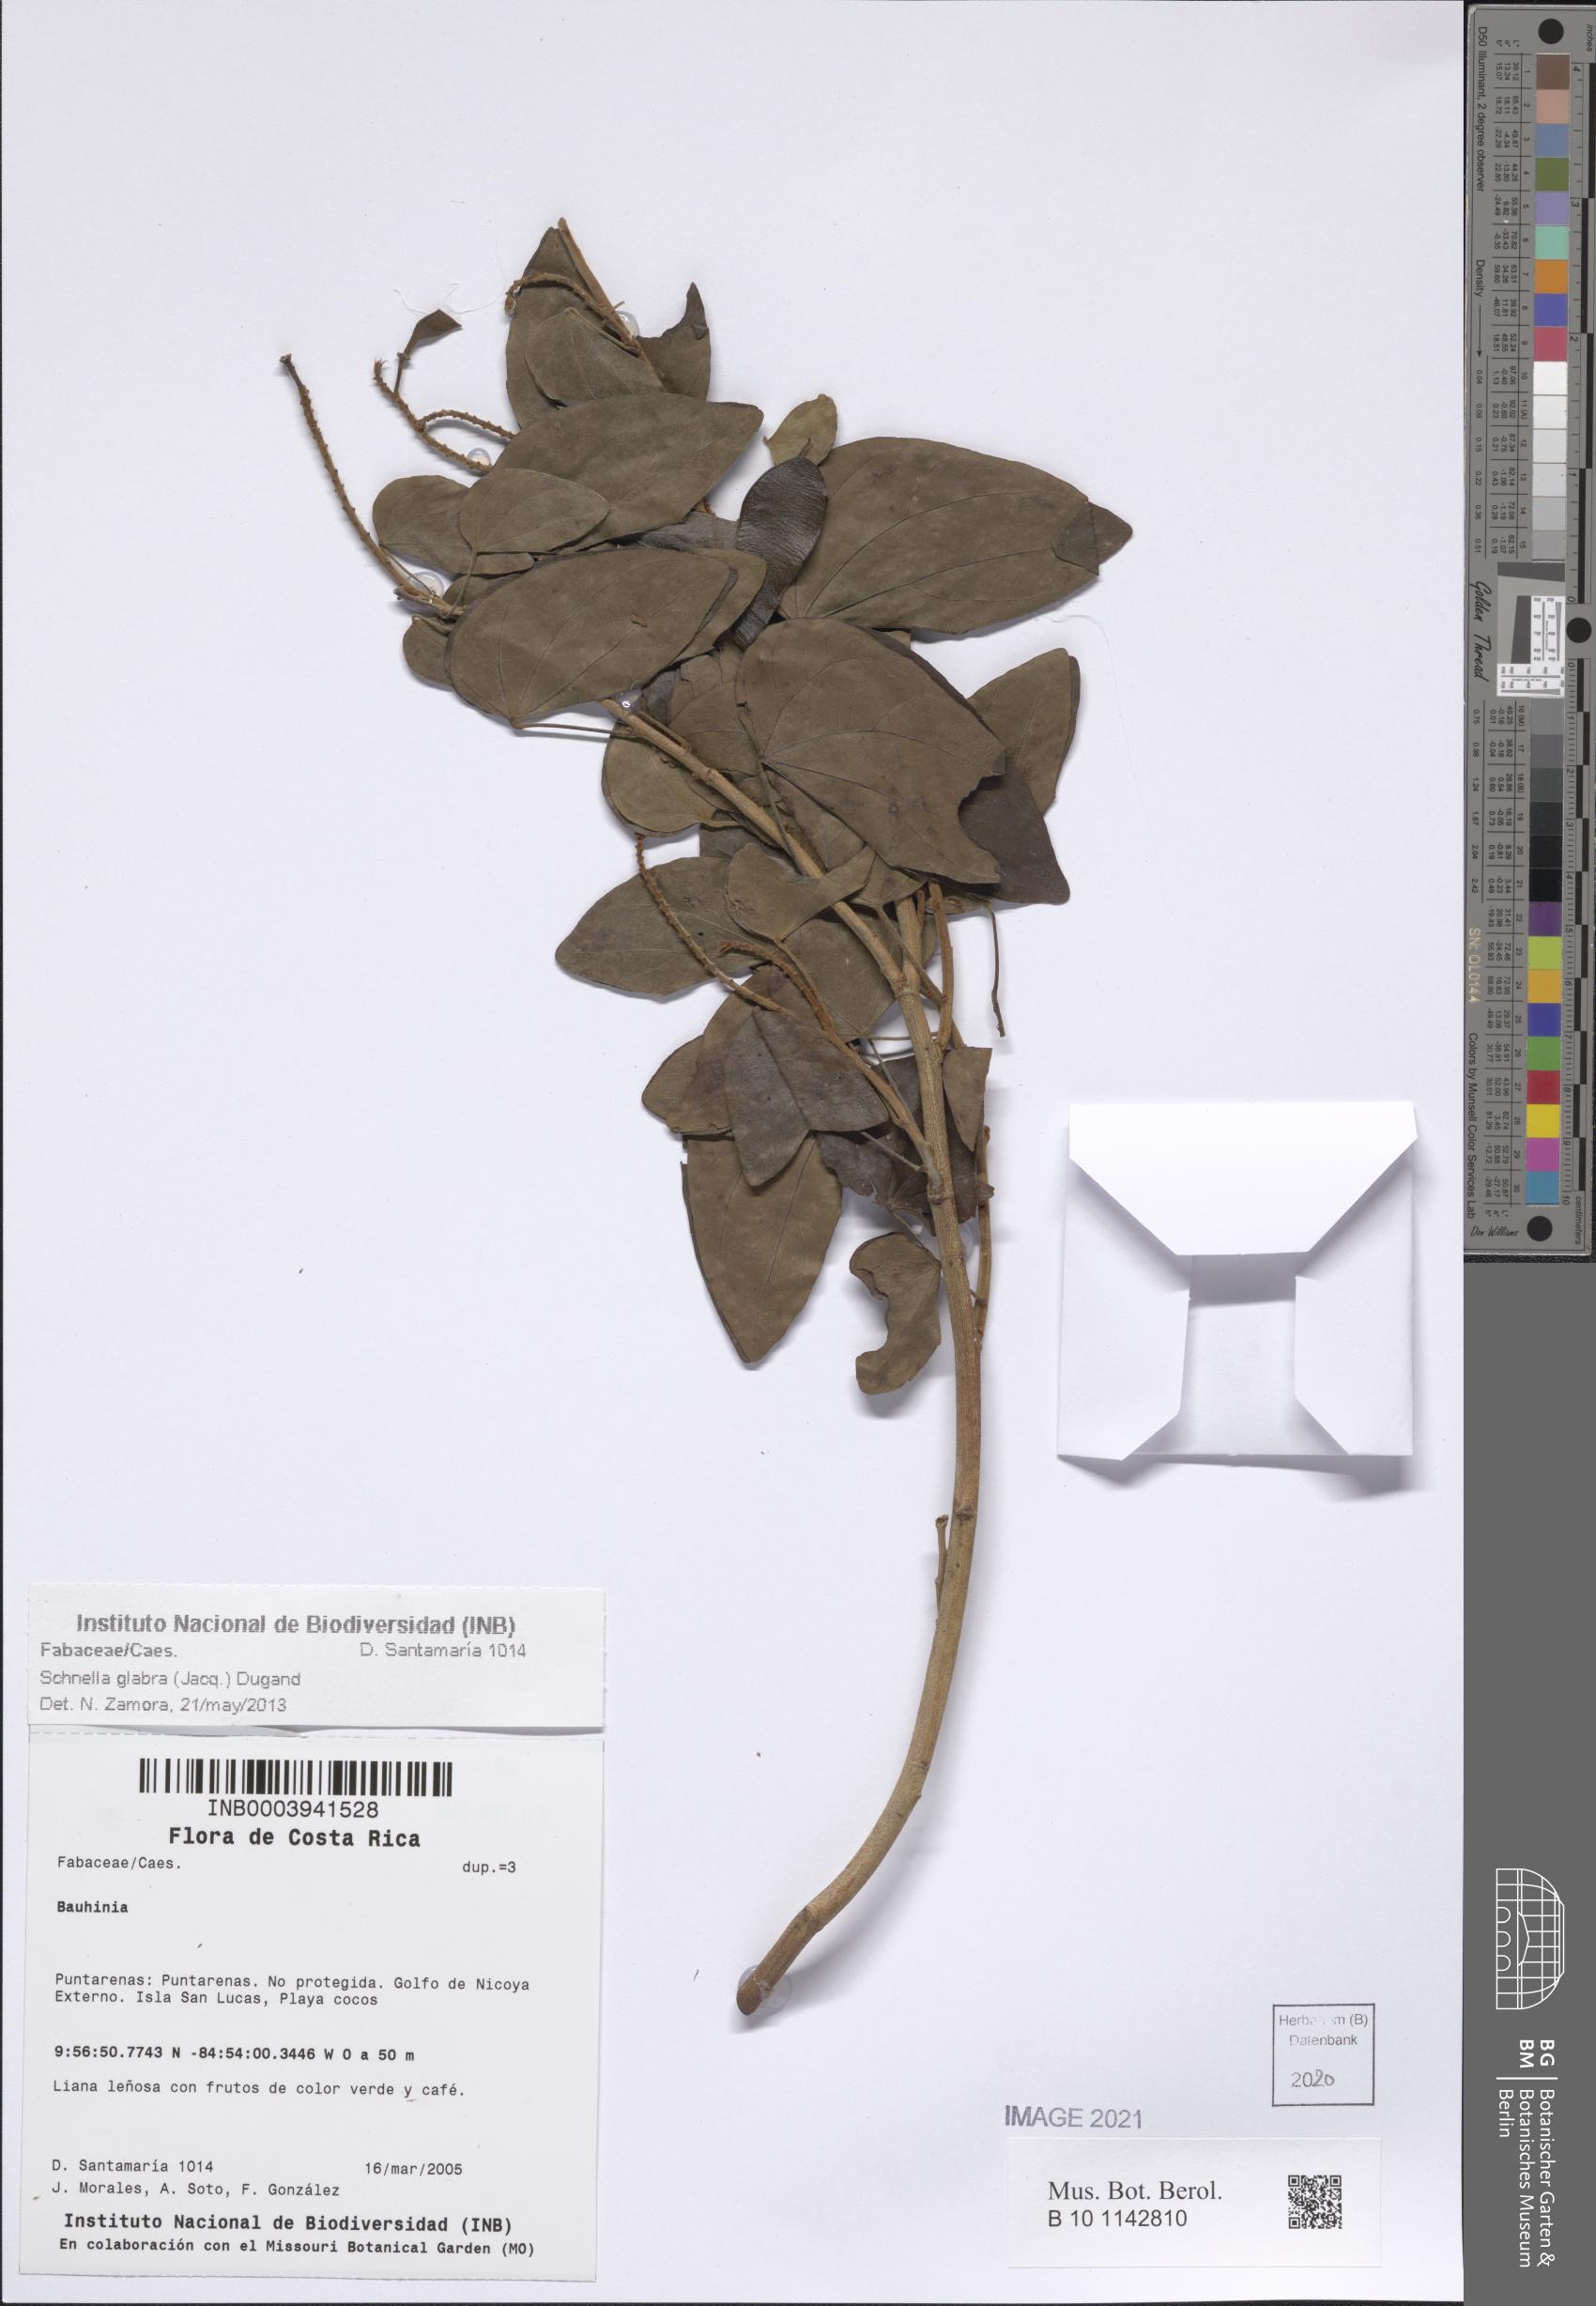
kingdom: Plantae
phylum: Tracheophyta
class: Magnoliopsida
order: Fabales
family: Fabaceae
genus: Schnella
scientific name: Schnella glabra
